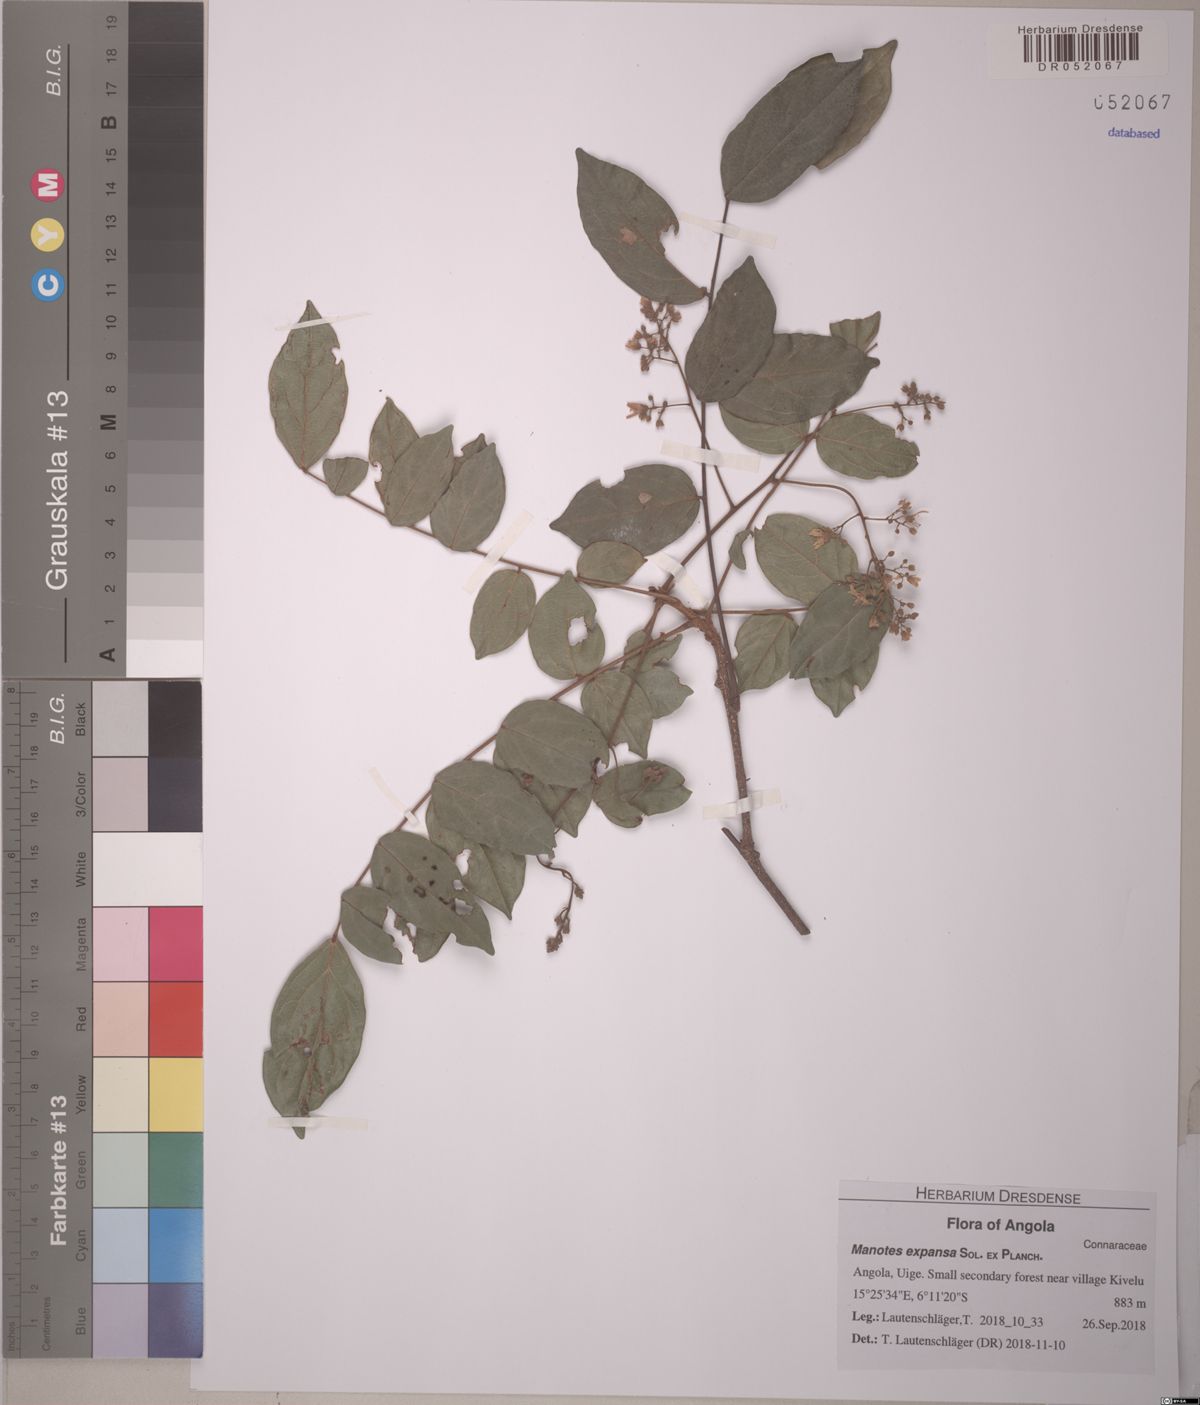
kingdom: Plantae
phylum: Tracheophyta
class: Magnoliopsida
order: Oxalidales
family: Connaraceae
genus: Manotes
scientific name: Manotes expansa
